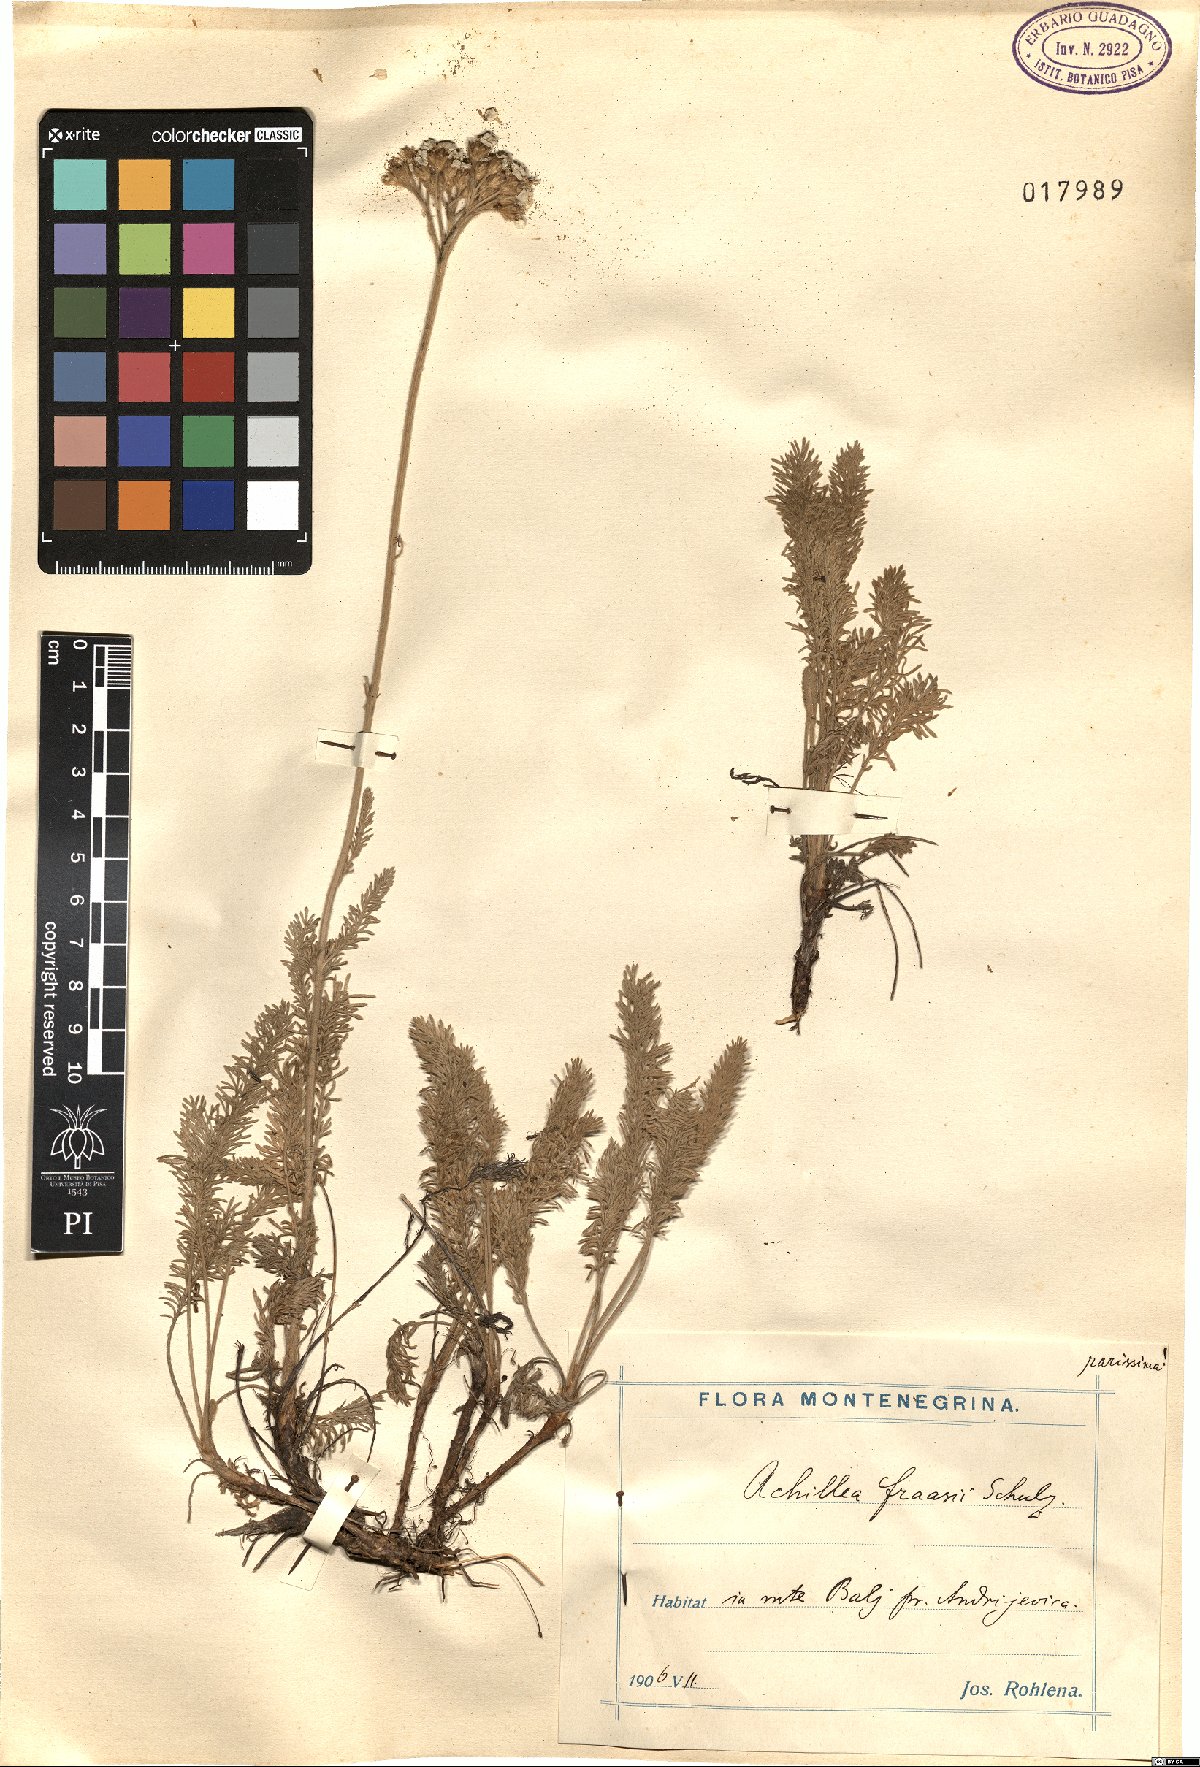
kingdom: Plantae
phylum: Tracheophyta
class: Magnoliopsida
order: Asterales
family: Asteraceae
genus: Achillea
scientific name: Achillea fraasii
